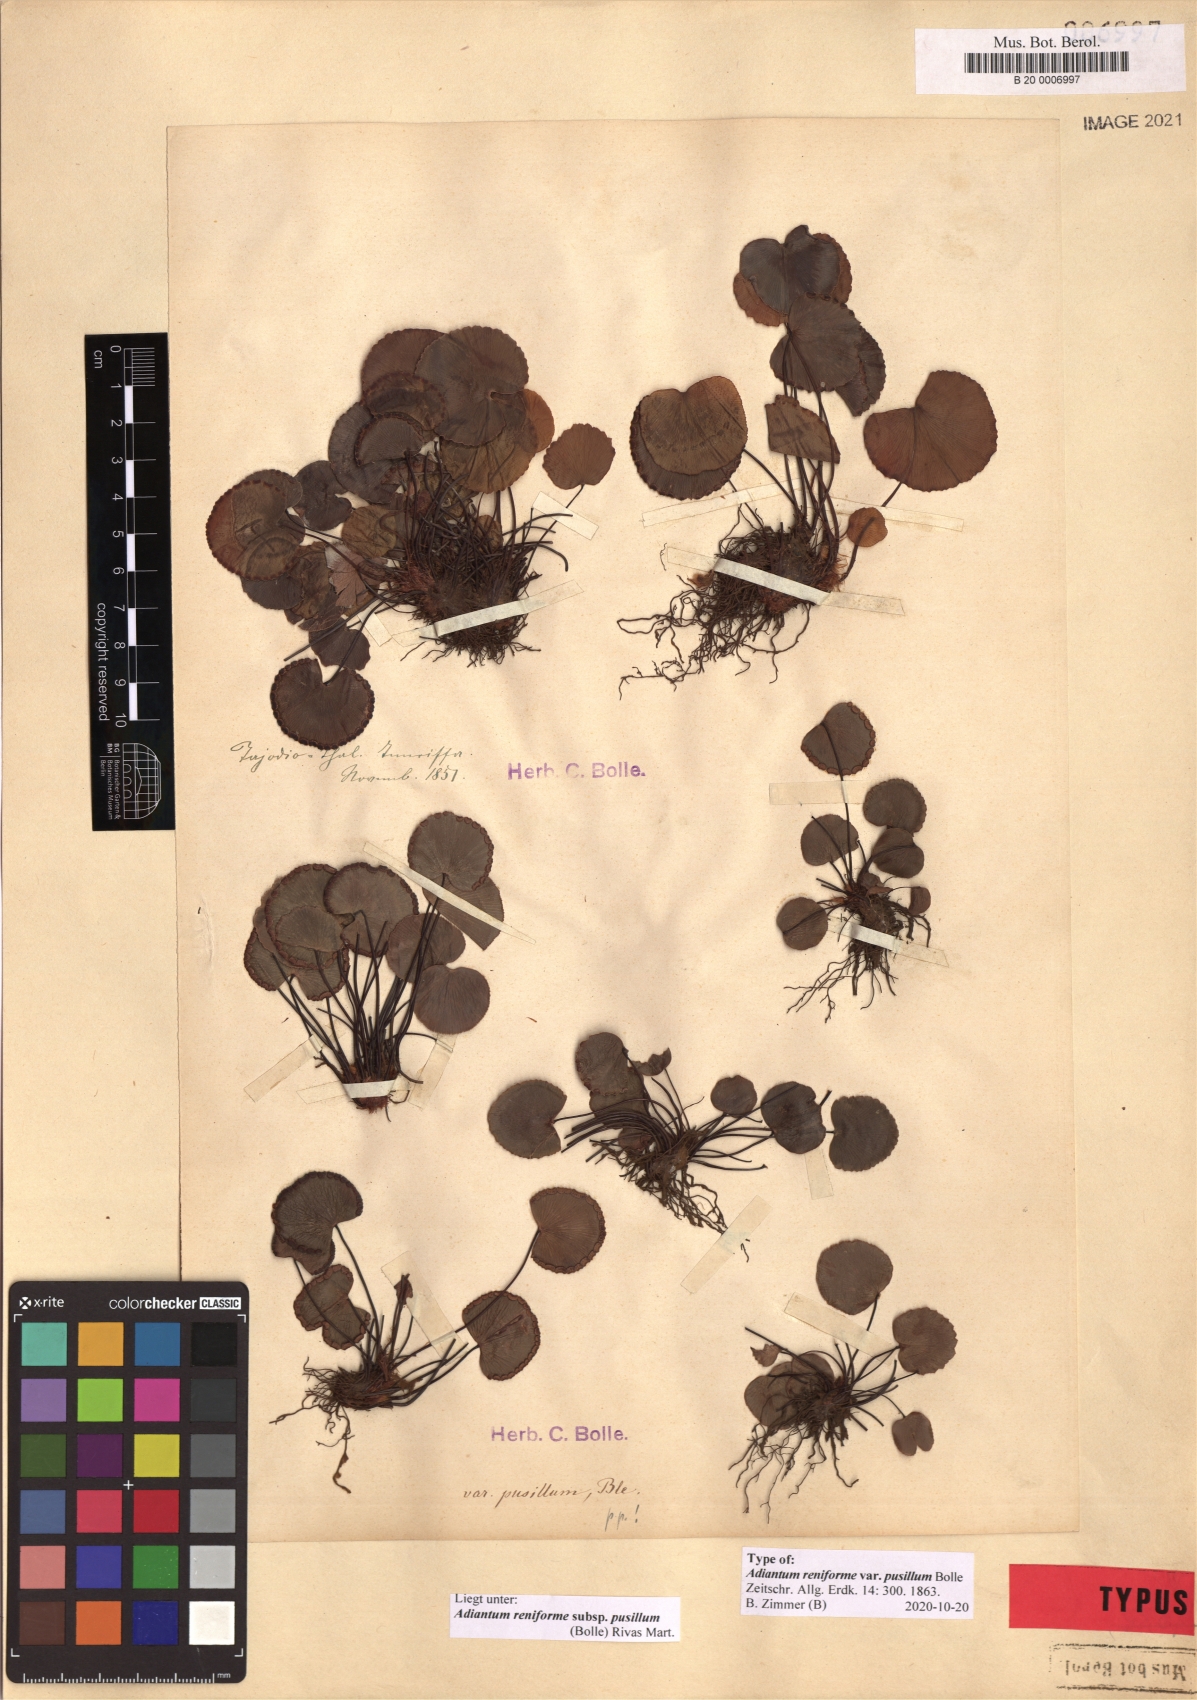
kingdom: Plantae
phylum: Tracheophyta
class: Polypodiopsida
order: Polypodiales
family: Pteridaceae
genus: Adiantum
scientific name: Adiantum reniforme
